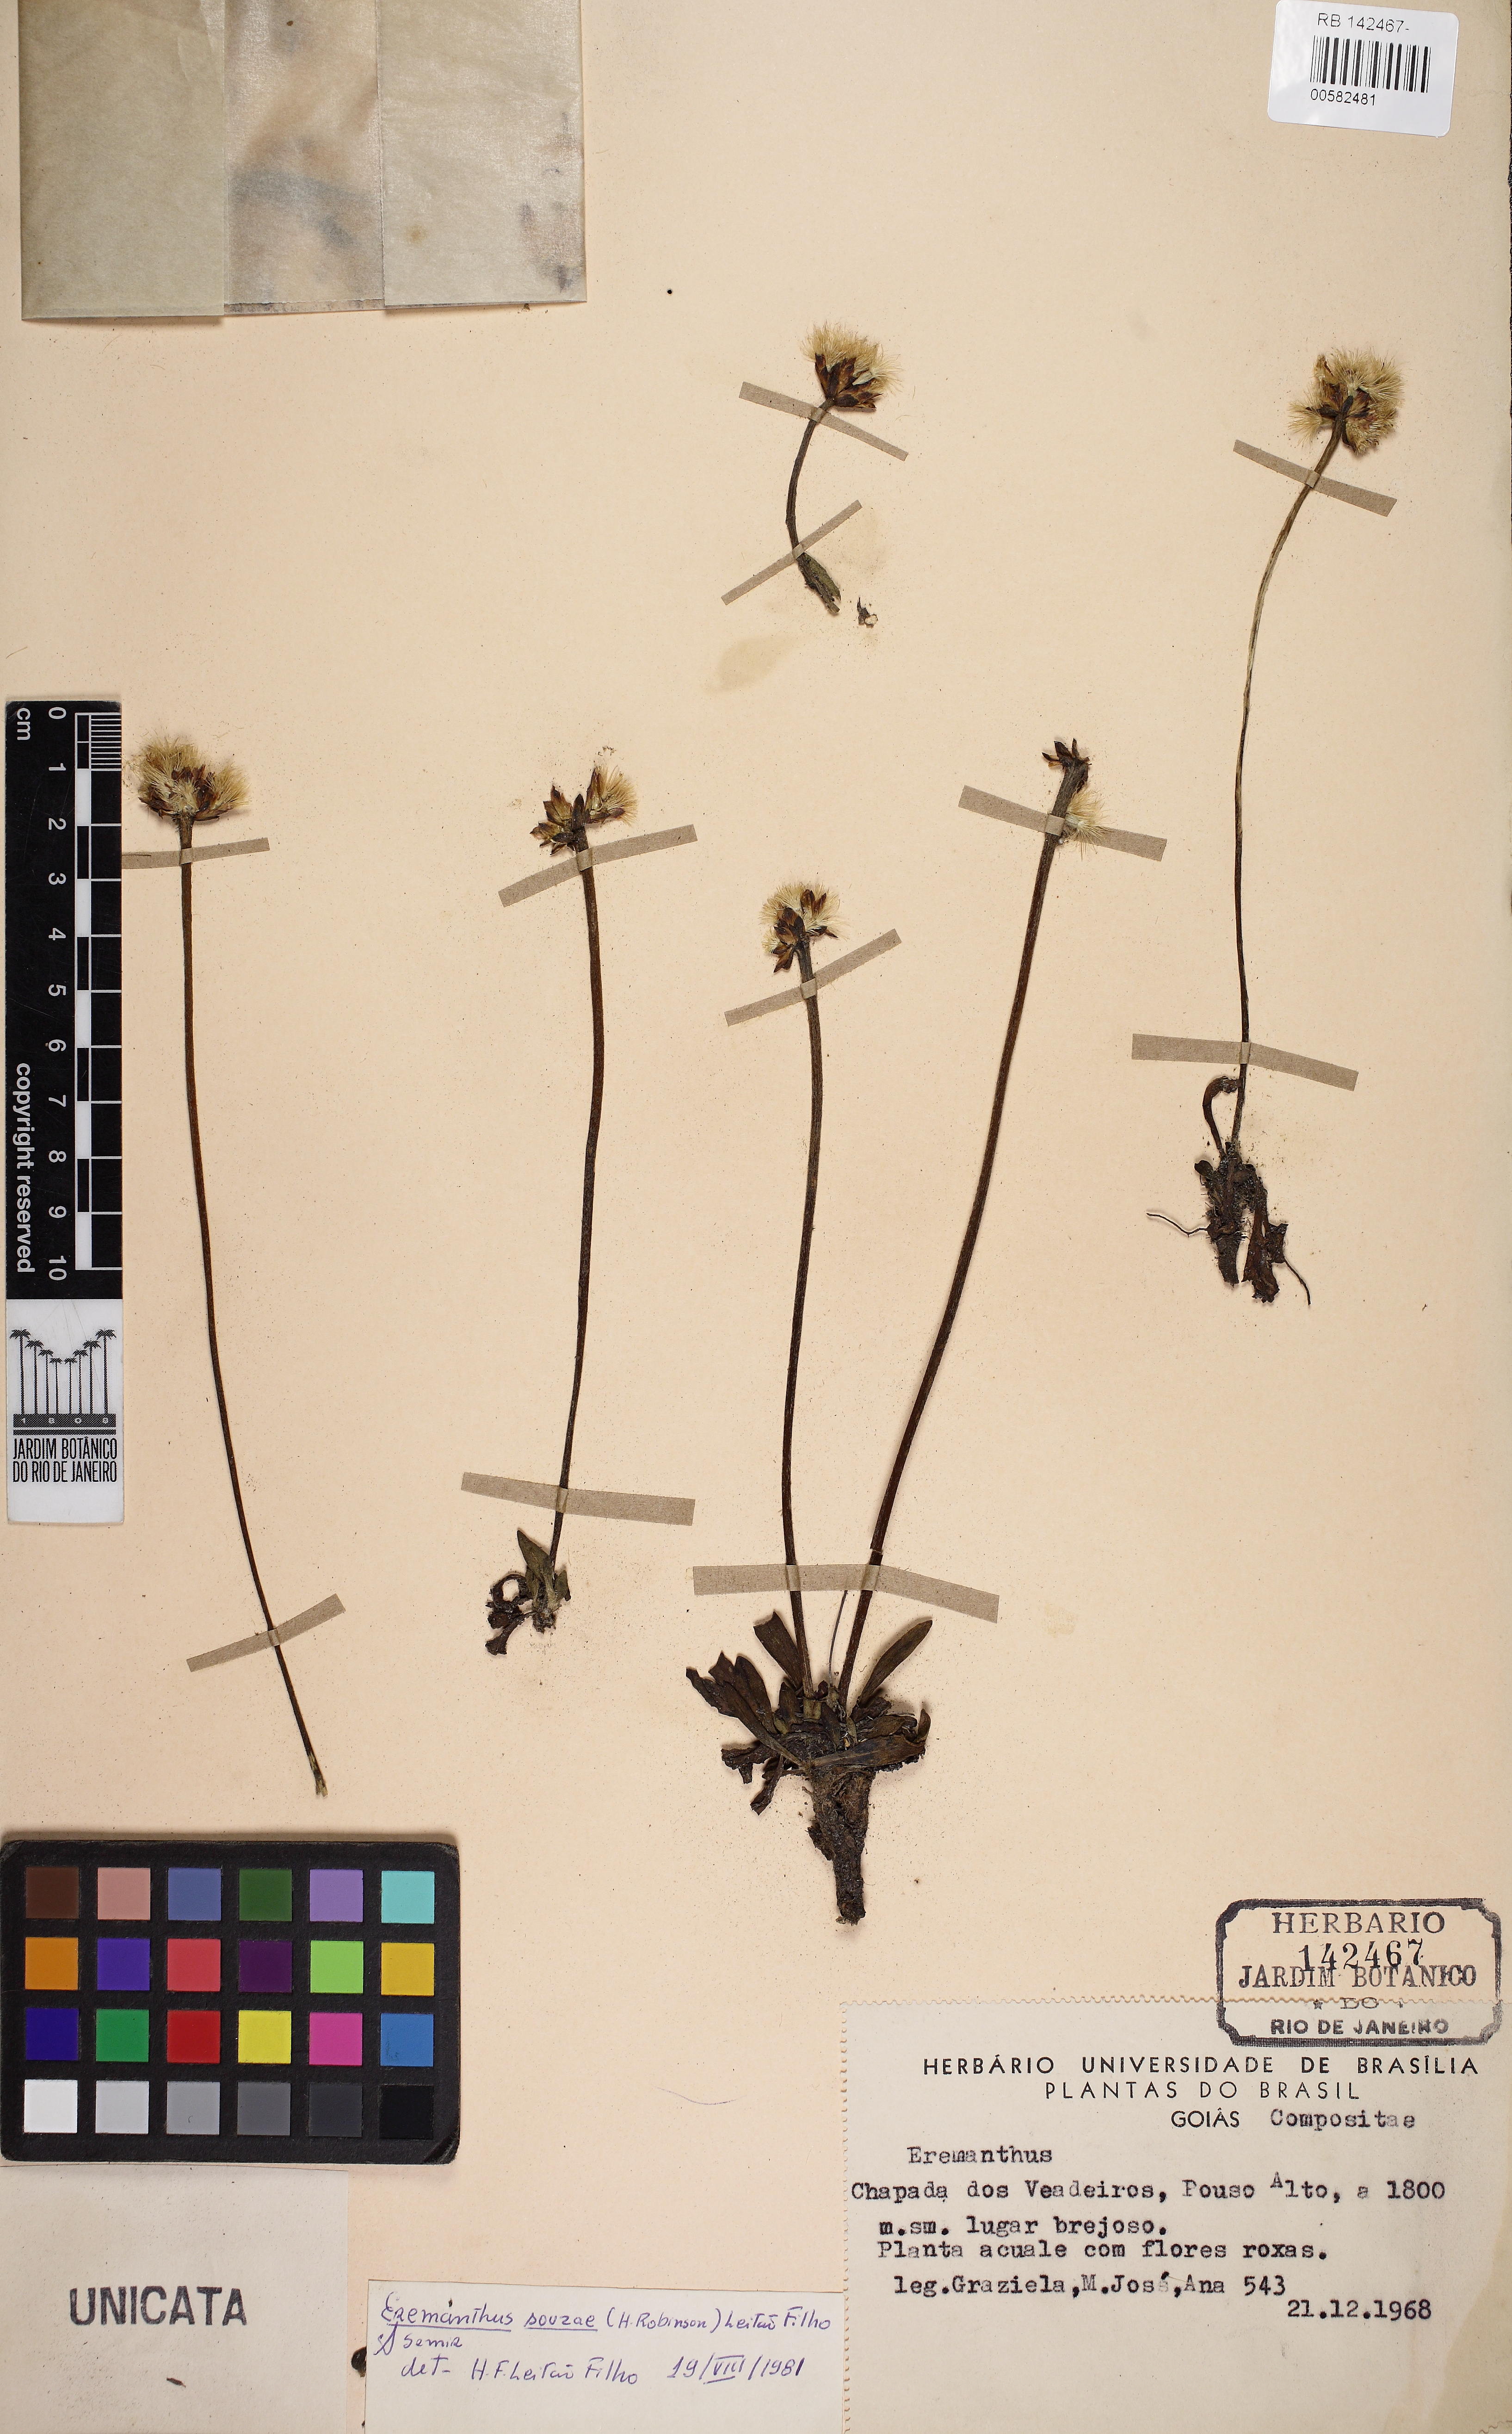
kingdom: Plantae
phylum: Tracheophyta
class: Magnoliopsida
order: Asterales
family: Asteraceae
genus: Eremanthus
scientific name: Eremanthus
